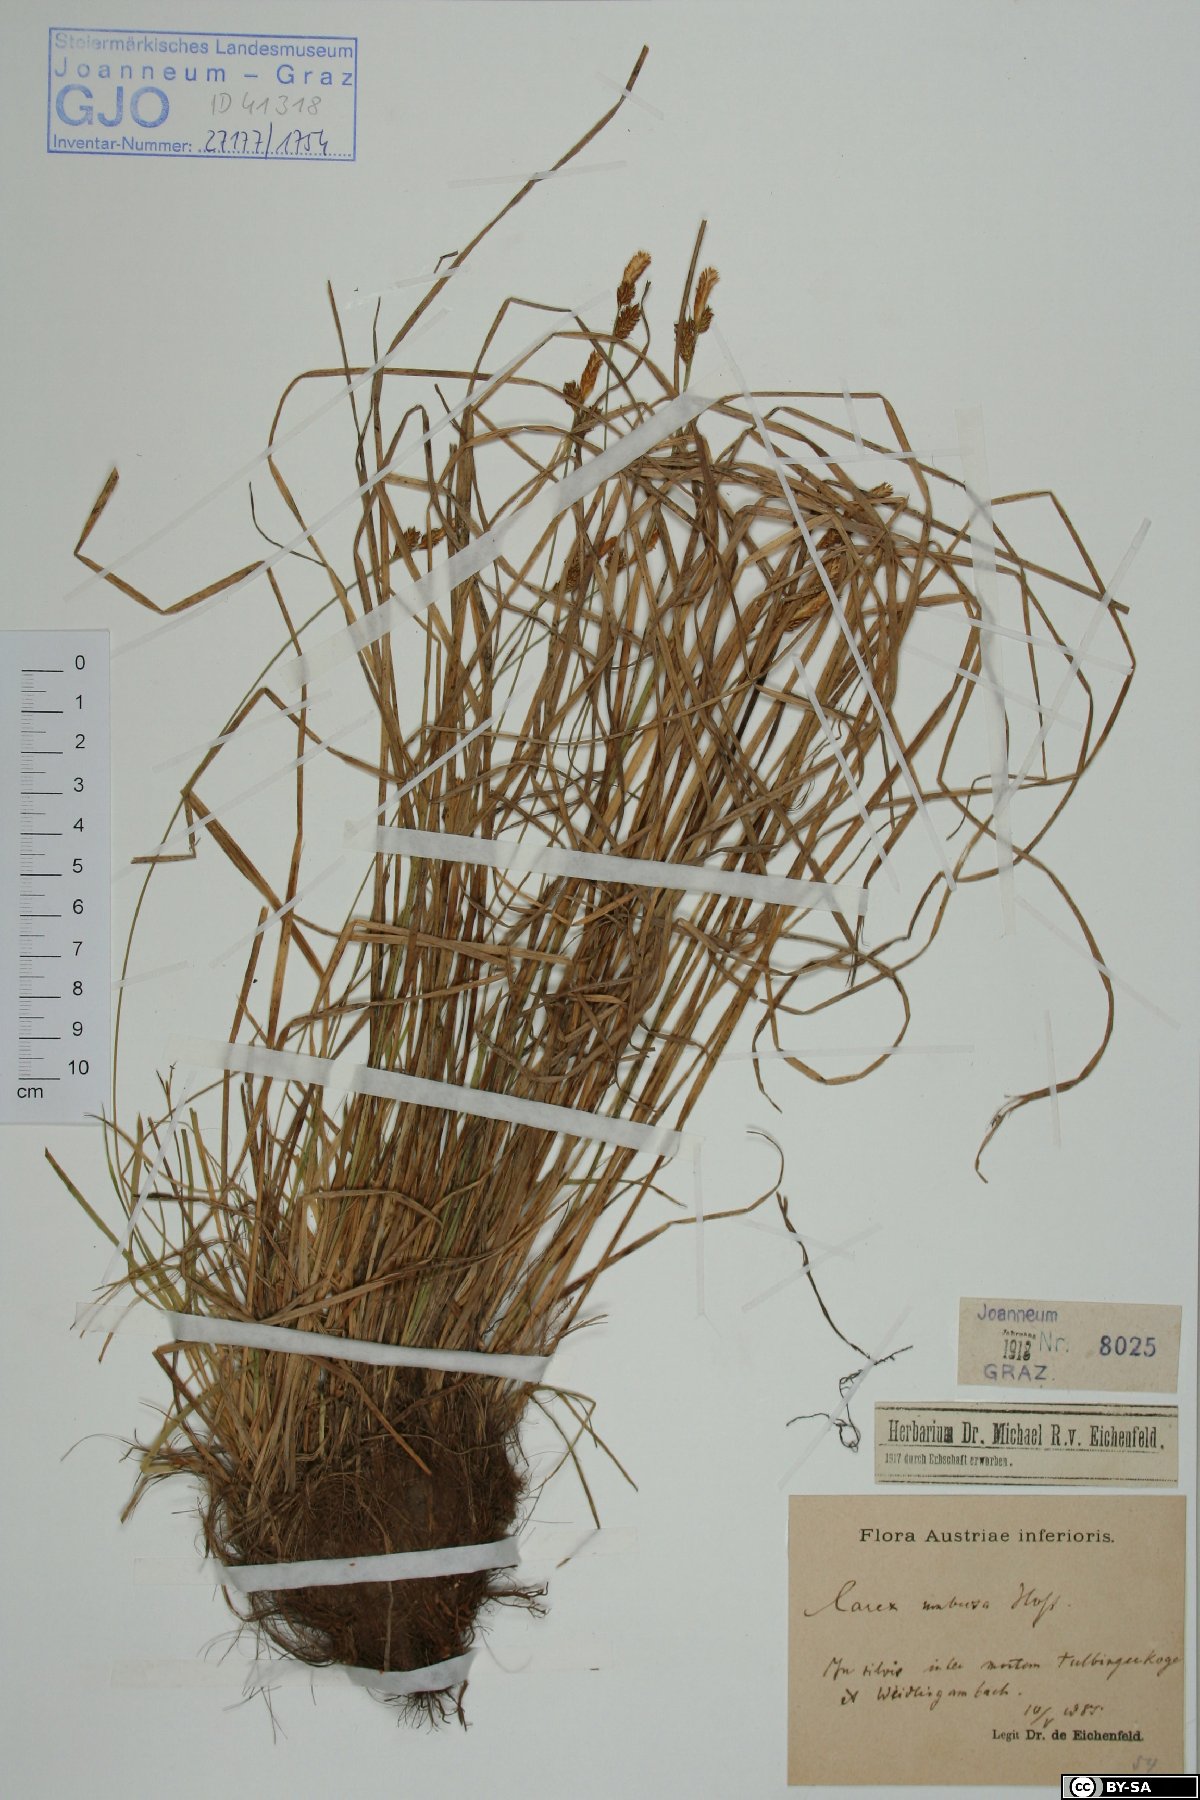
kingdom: Plantae
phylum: Tracheophyta
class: Liliopsida
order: Poales
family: Cyperaceae
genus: Carex
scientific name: Carex umbrosa
